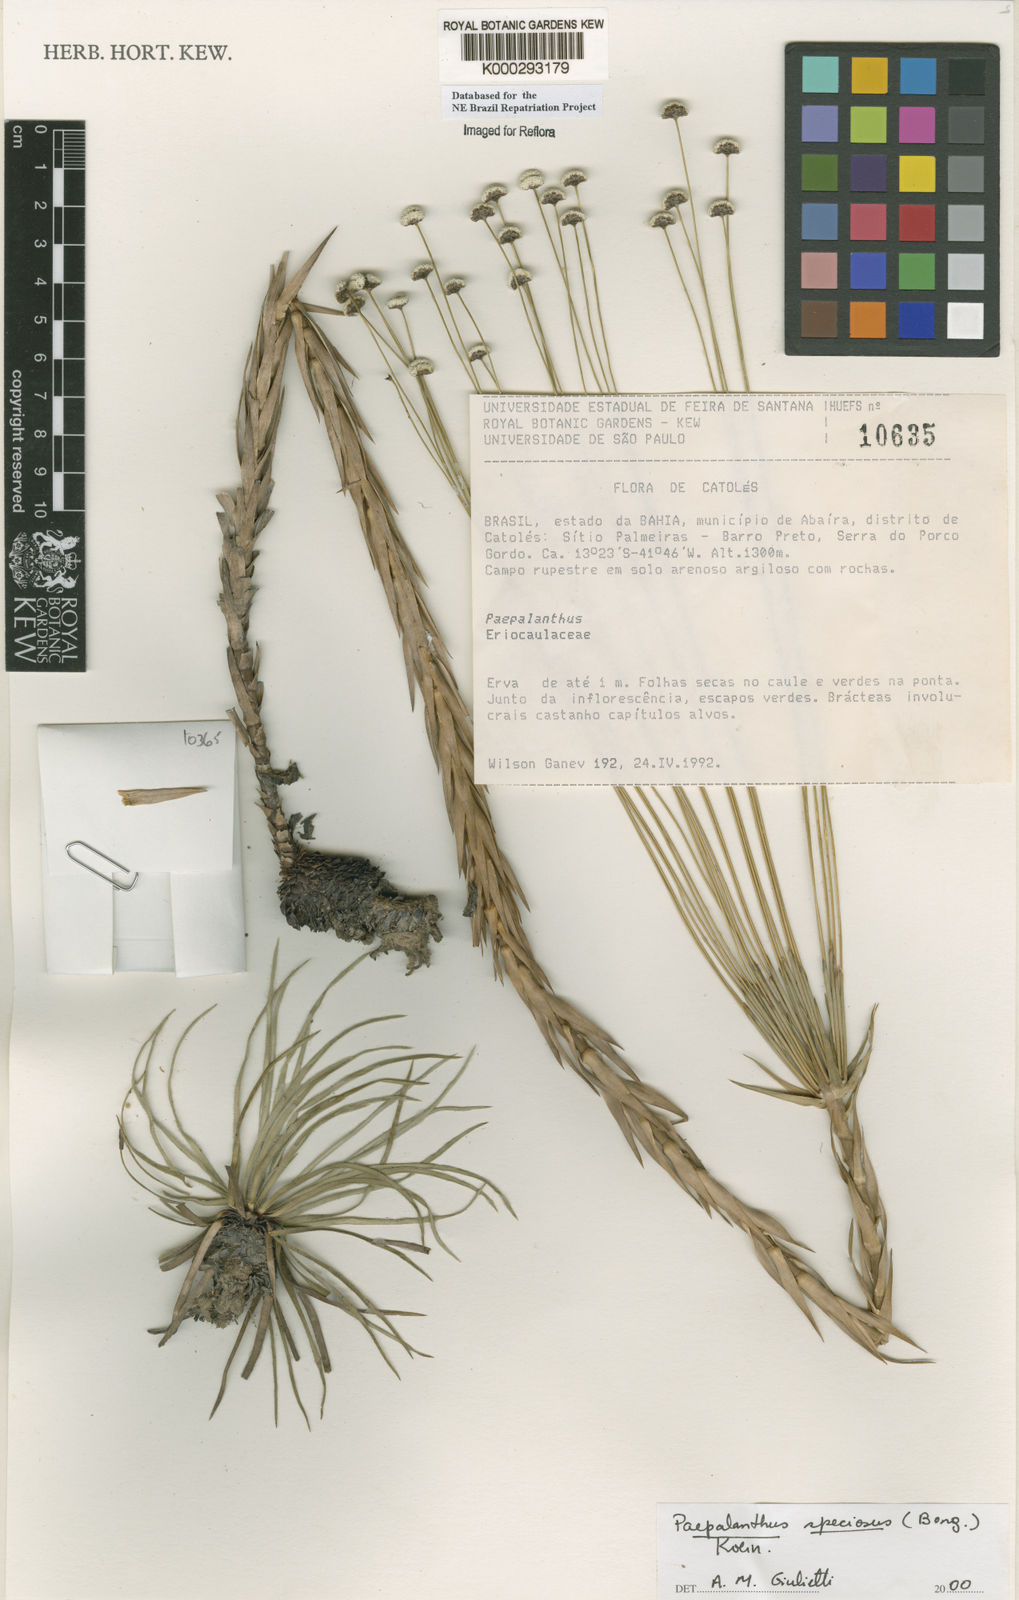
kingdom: Plantae
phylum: Tracheophyta
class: Liliopsida
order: Poales
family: Eriocaulaceae
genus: Paepalanthus
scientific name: Paepalanthus
